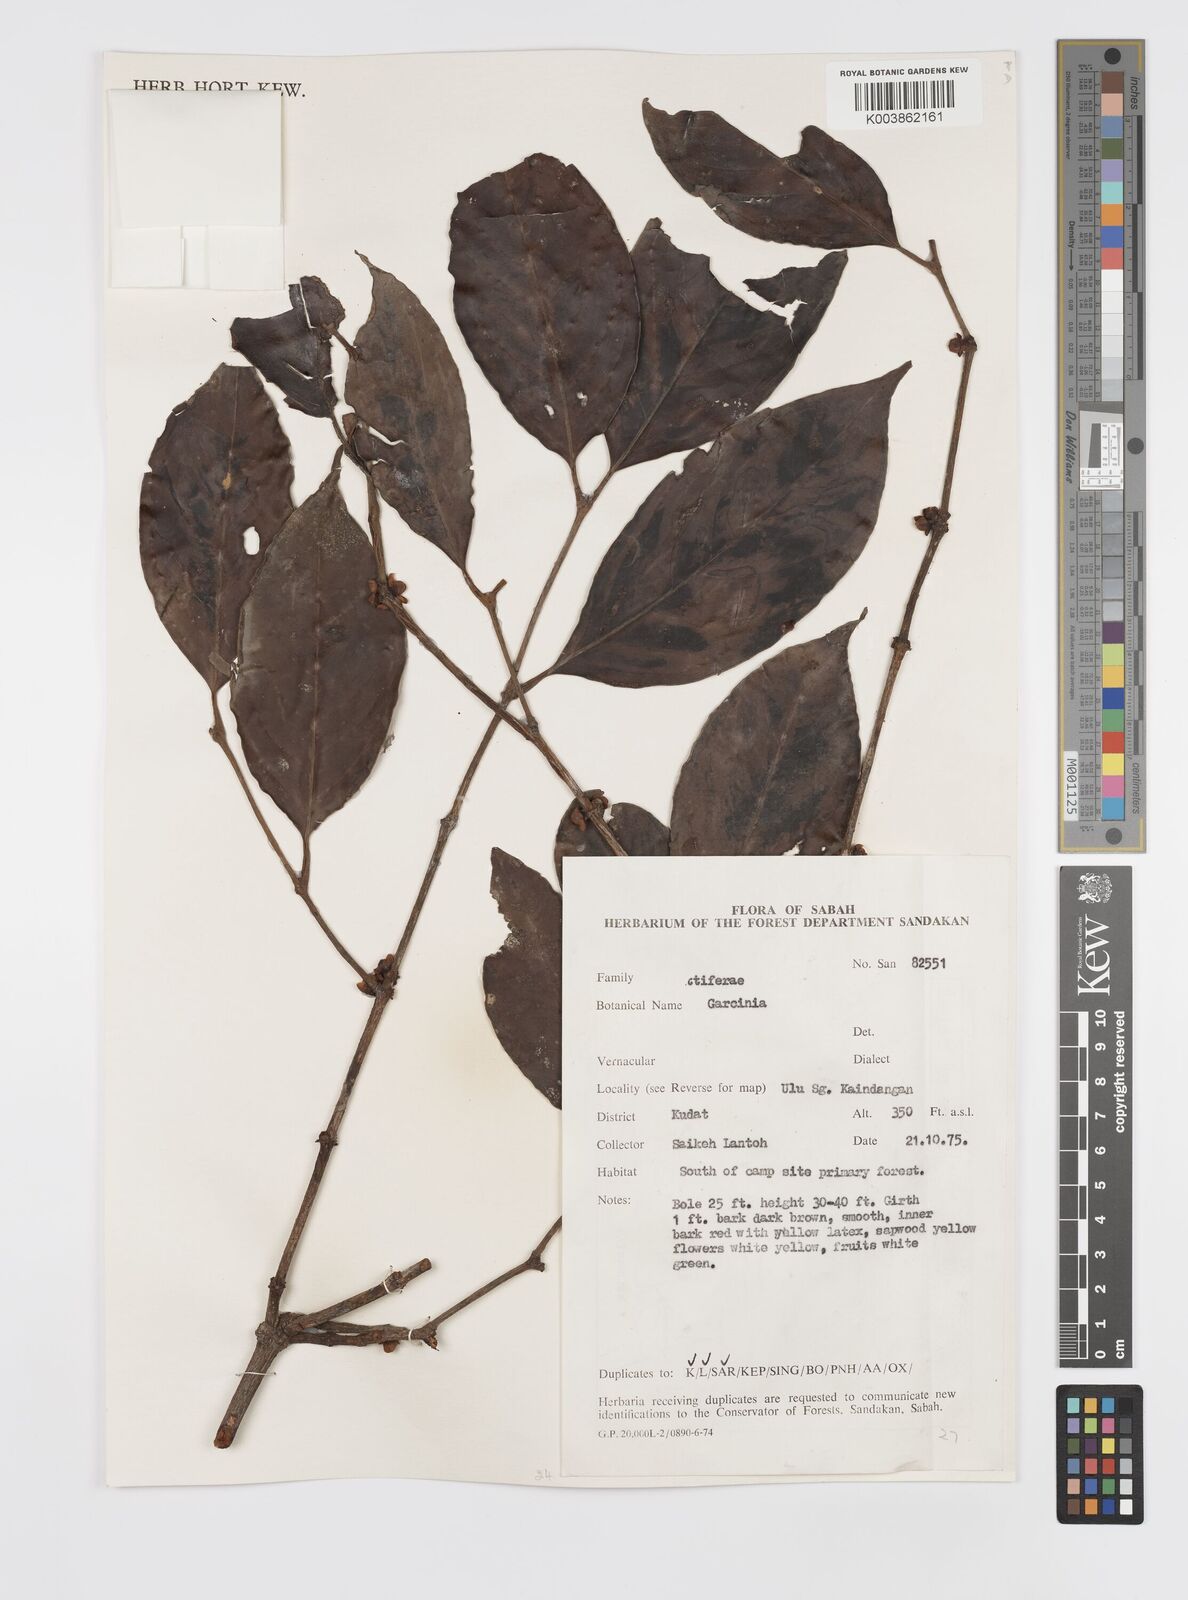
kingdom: Plantae
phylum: Tracheophyta
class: Magnoliopsida
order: Malpighiales
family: Clusiaceae
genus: Garcinia
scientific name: Garcinia
